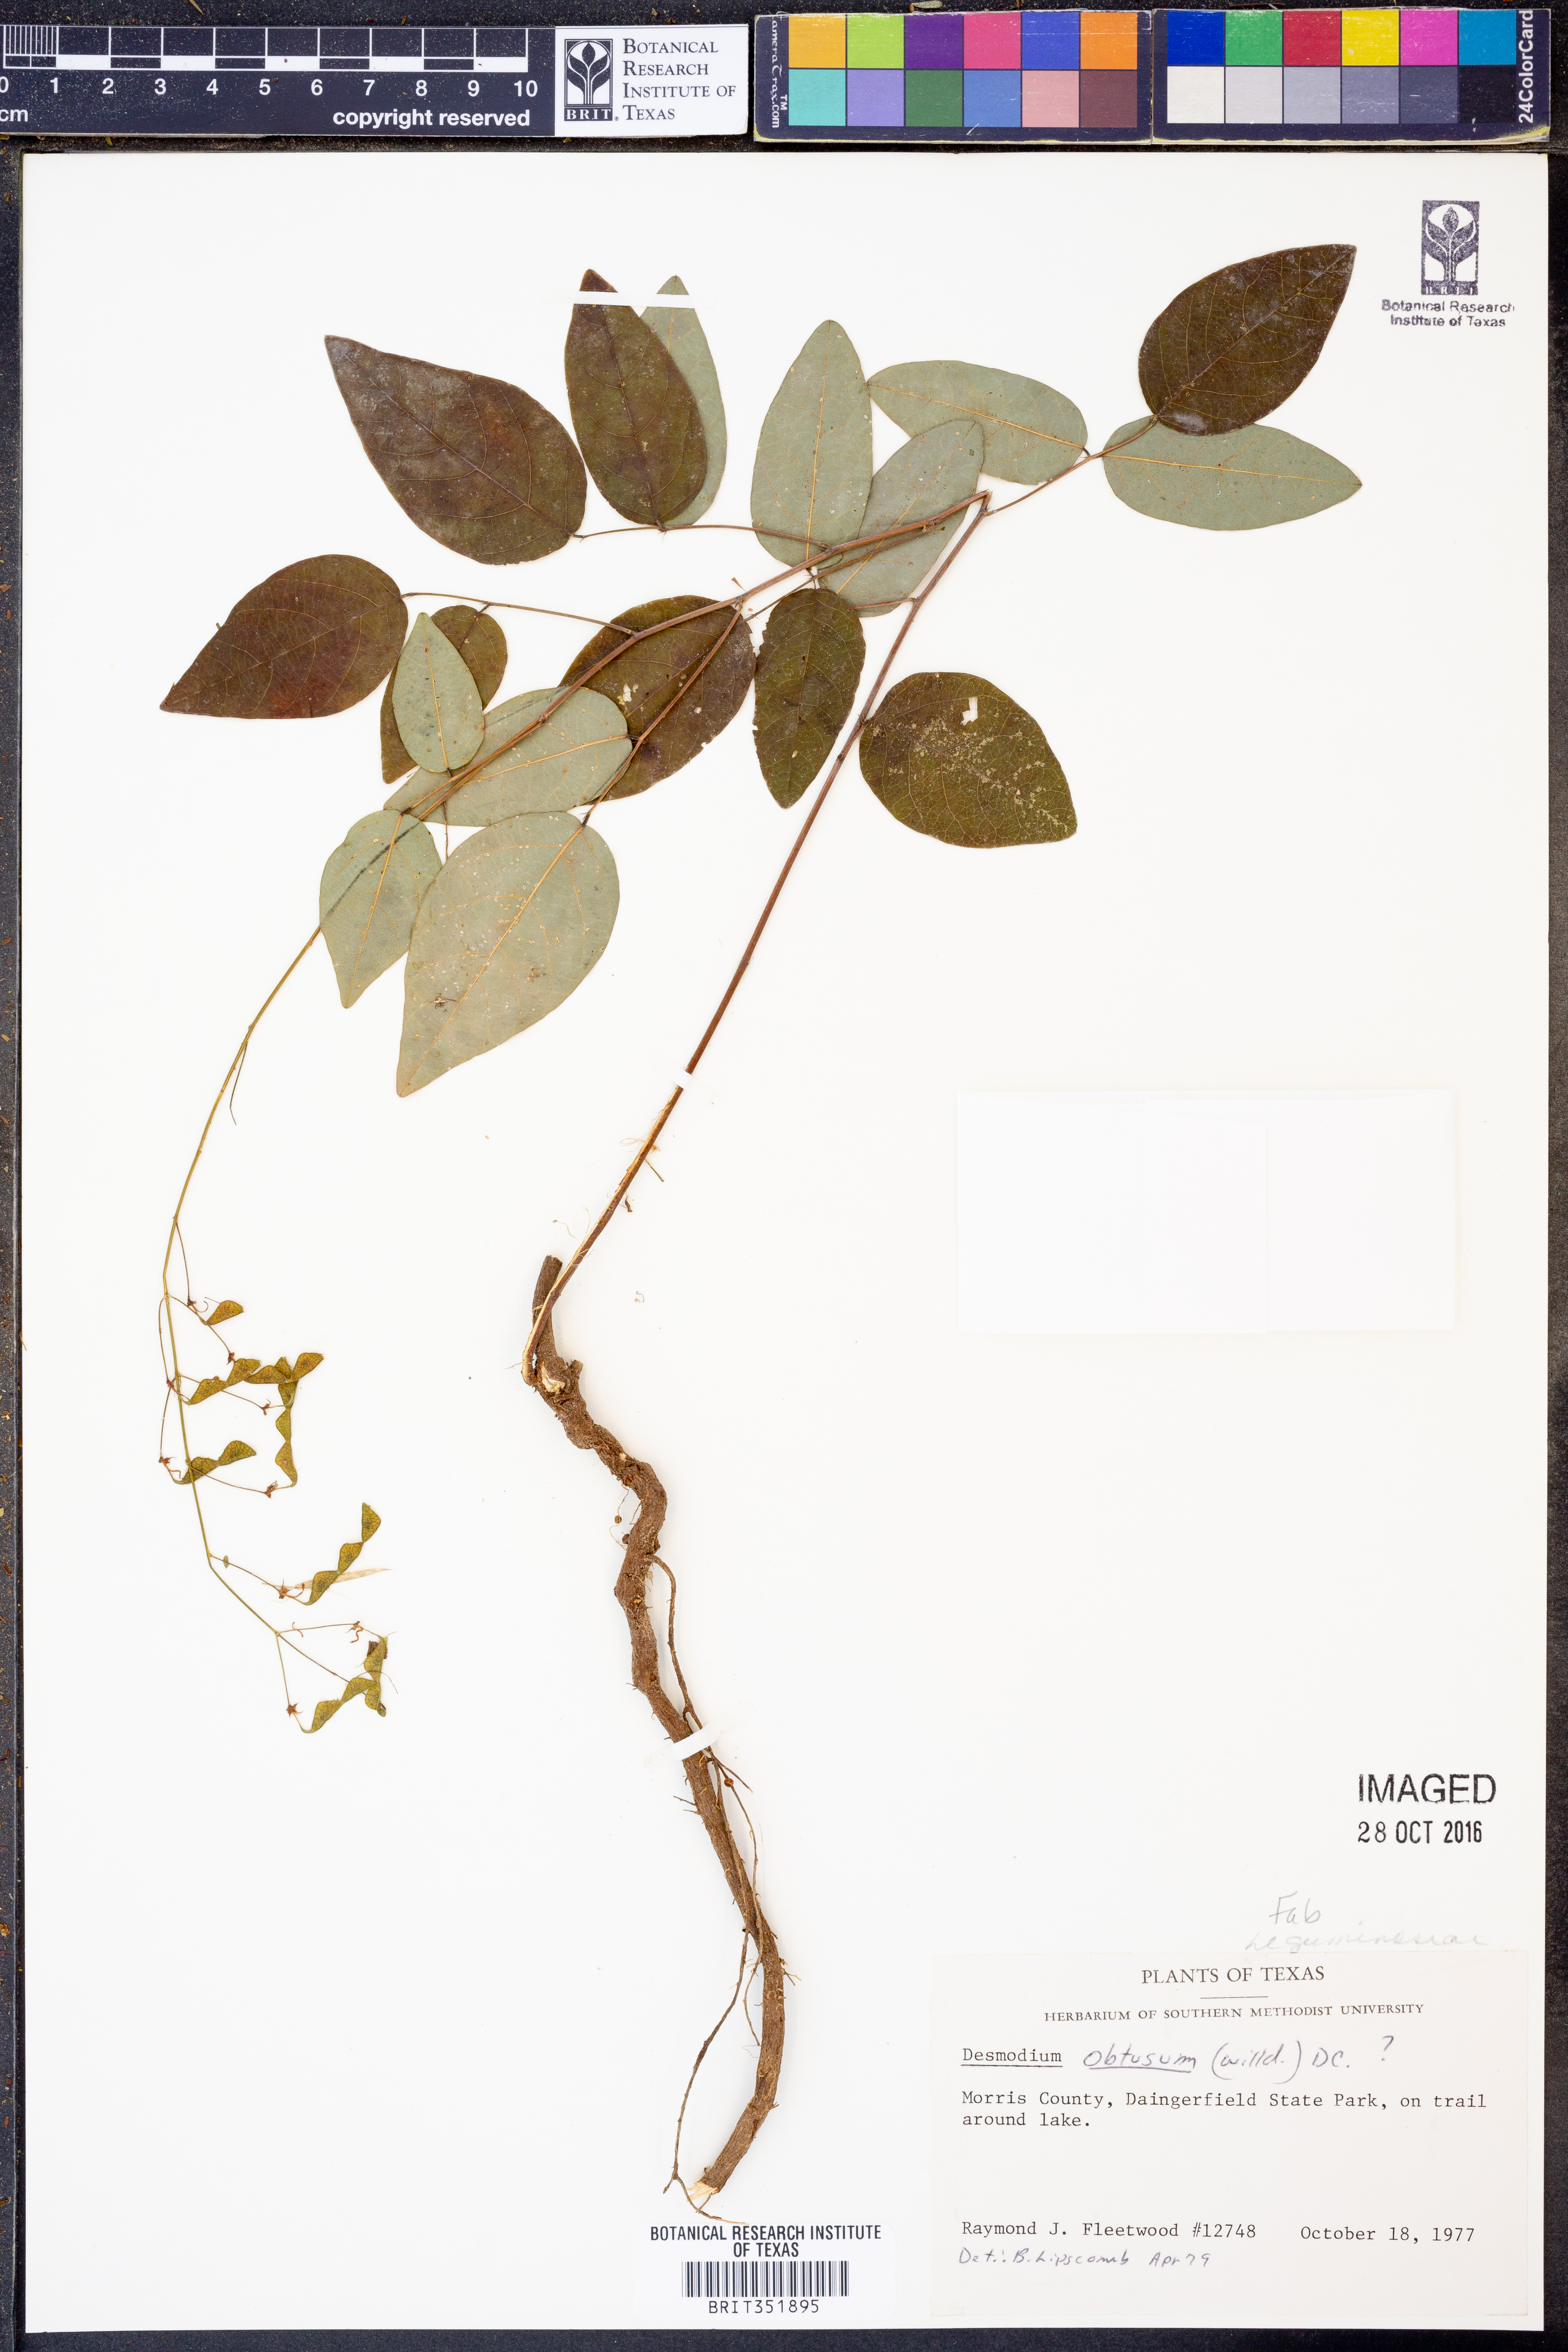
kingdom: Plantae
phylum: Tracheophyta
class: Magnoliopsida
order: Fabales
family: Fabaceae
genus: Desmodium
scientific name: Desmodium obtusum
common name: Stiff tick trefoil
